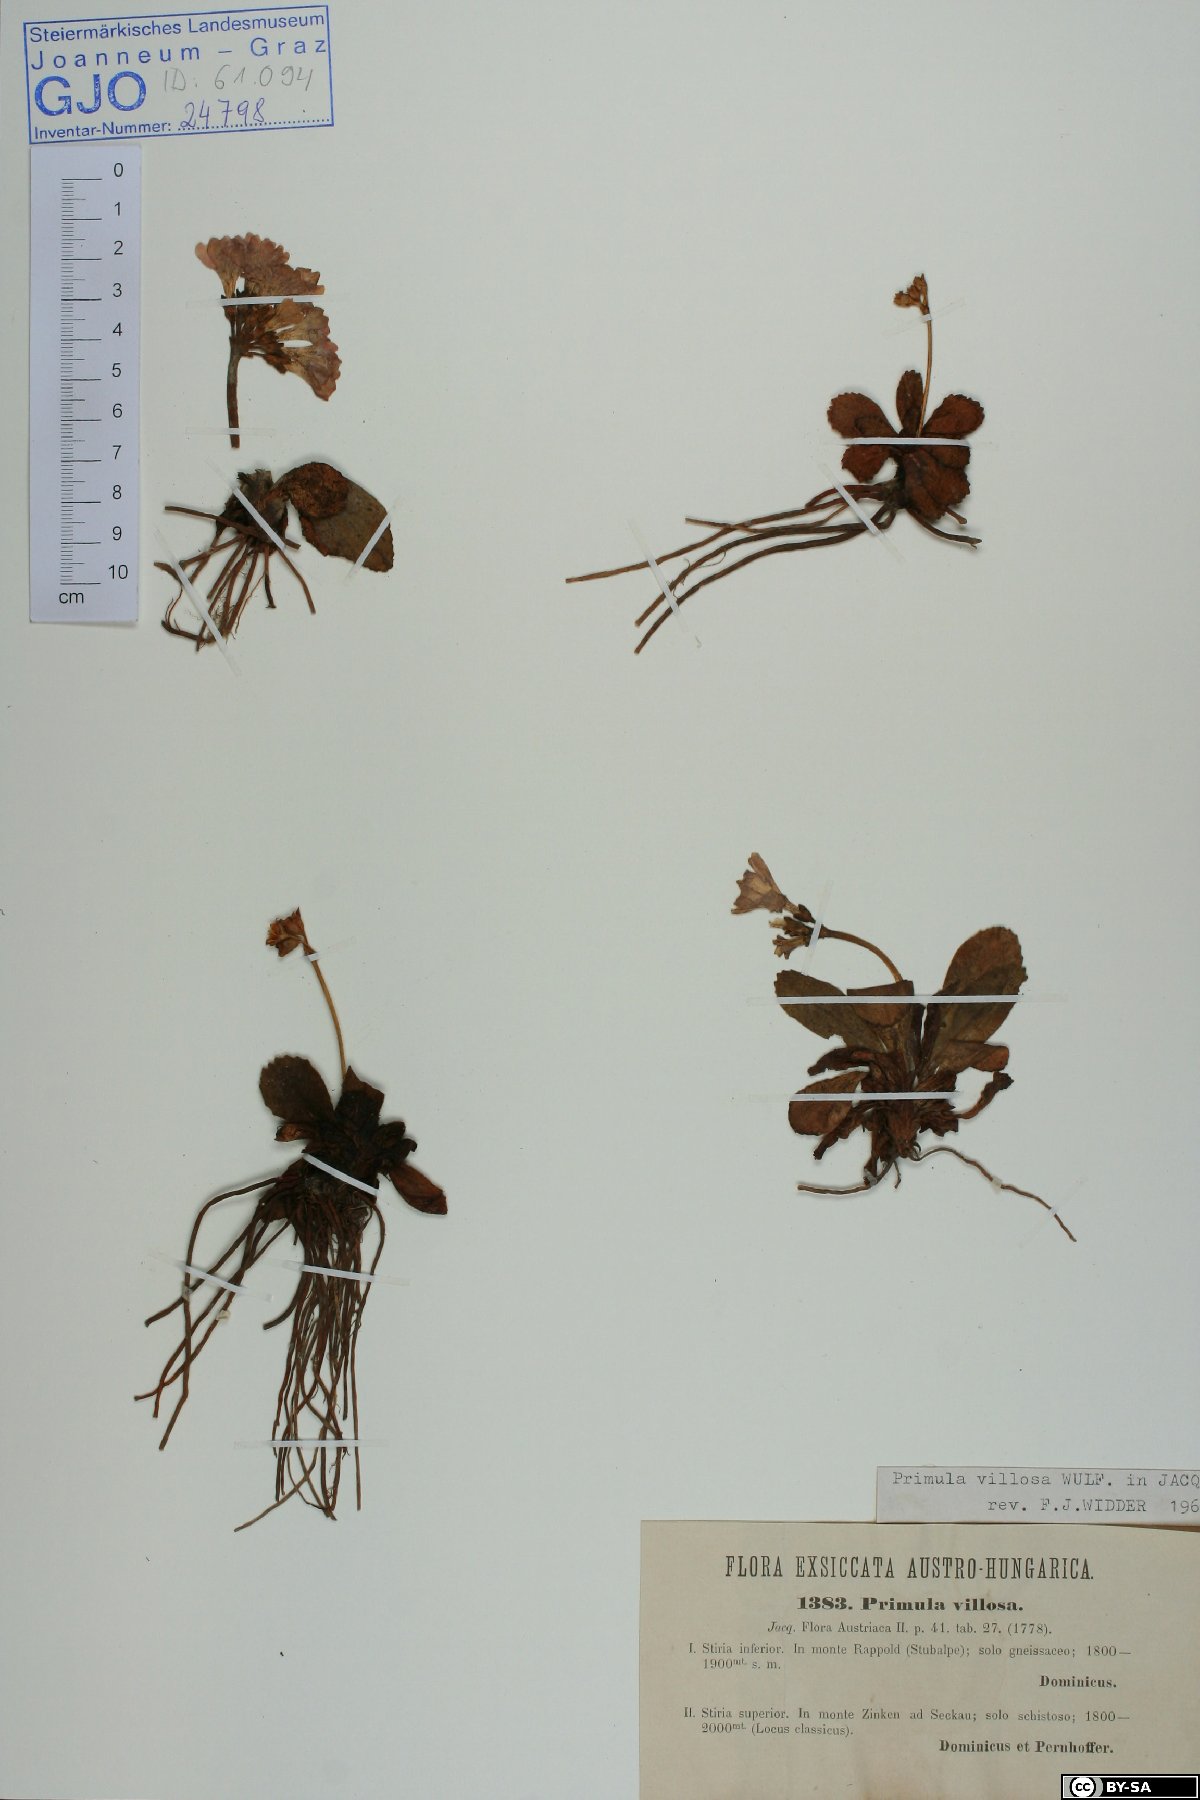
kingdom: Plantae
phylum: Tracheophyta
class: Magnoliopsida
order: Ericales
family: Primulaceae
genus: Primula
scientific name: Primula villosa
